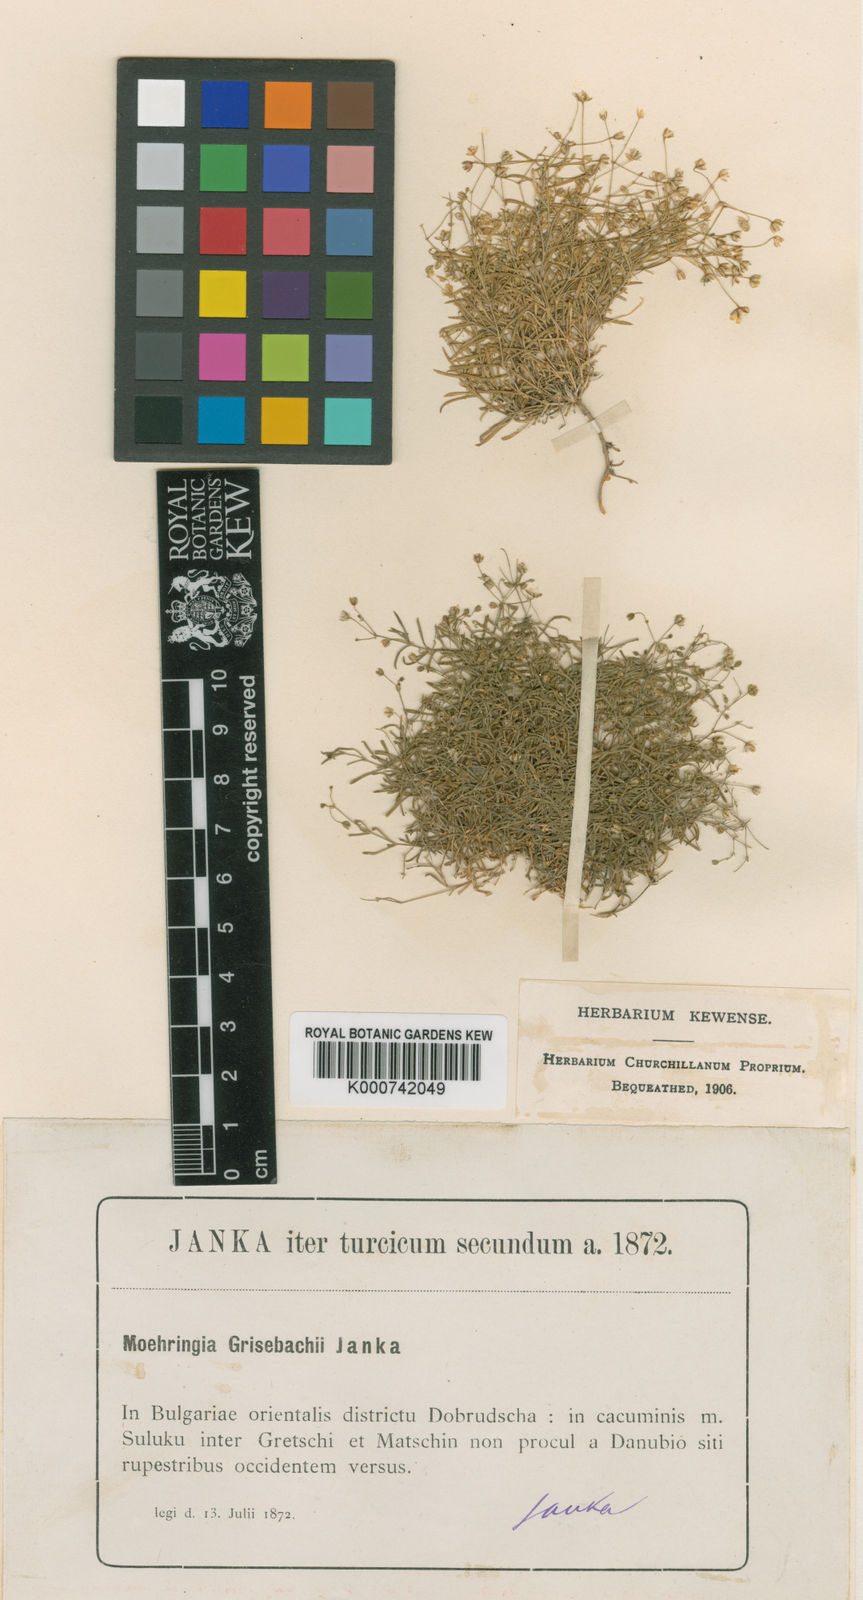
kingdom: Plantae
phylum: Tracheophyta
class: Magnoliopsida
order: Caryophyllales
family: Caryophyllaceae
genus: Moehringia
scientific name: Moehringia grisebachii
